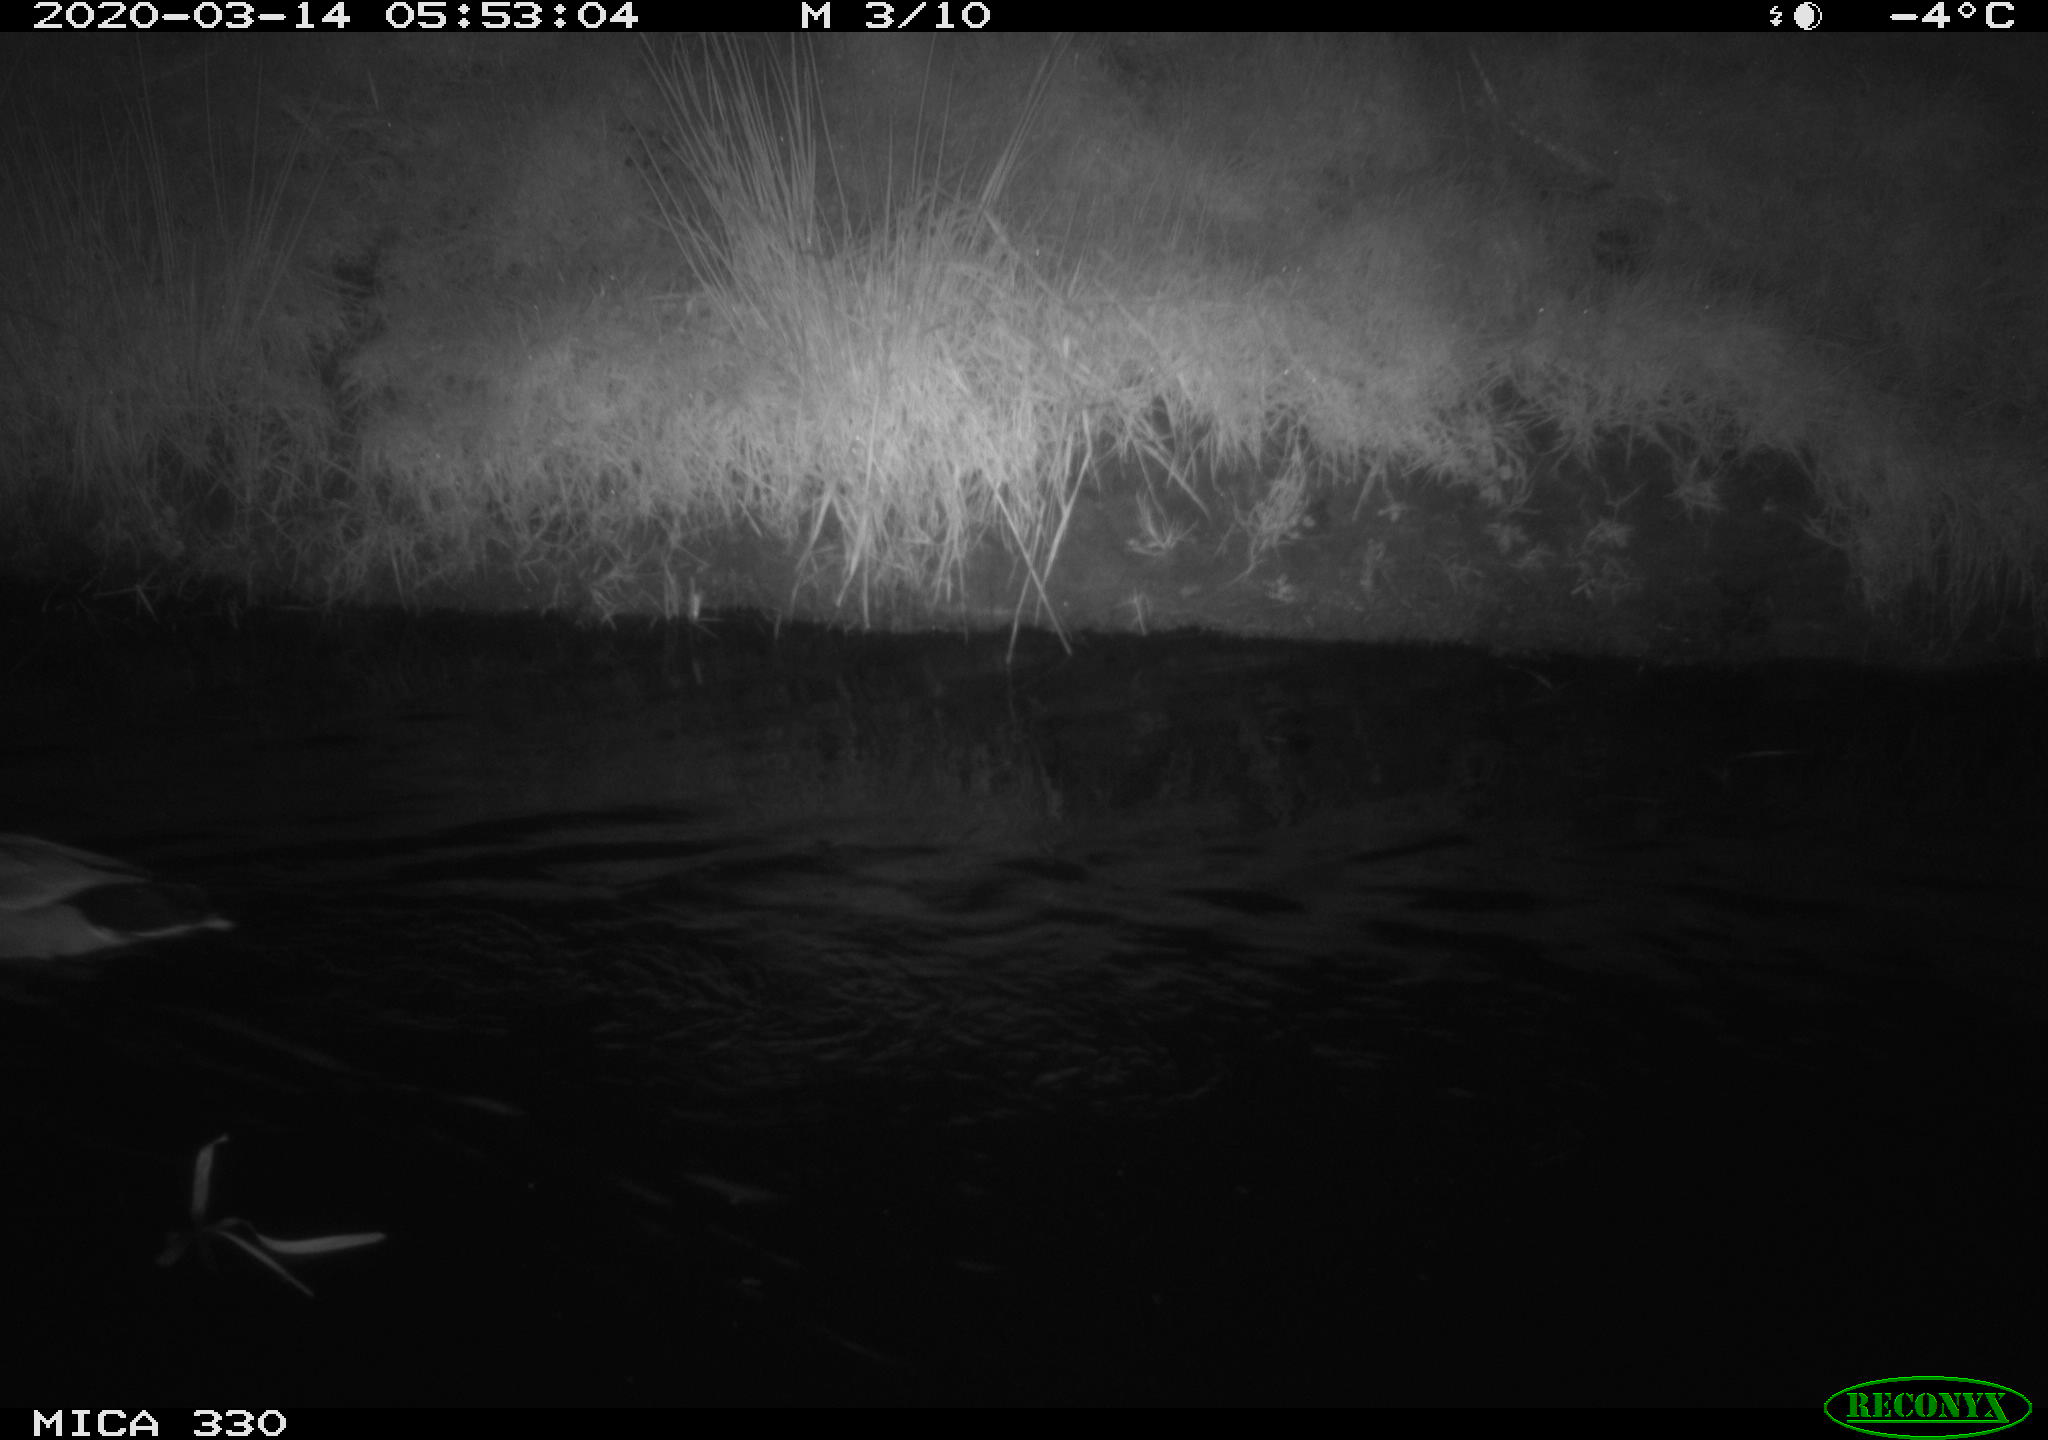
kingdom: Animalia
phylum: Chordata
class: Aves
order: Anseriformes
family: Anatidae
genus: Anas
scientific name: Anas platyrhynchos
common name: Mallard
